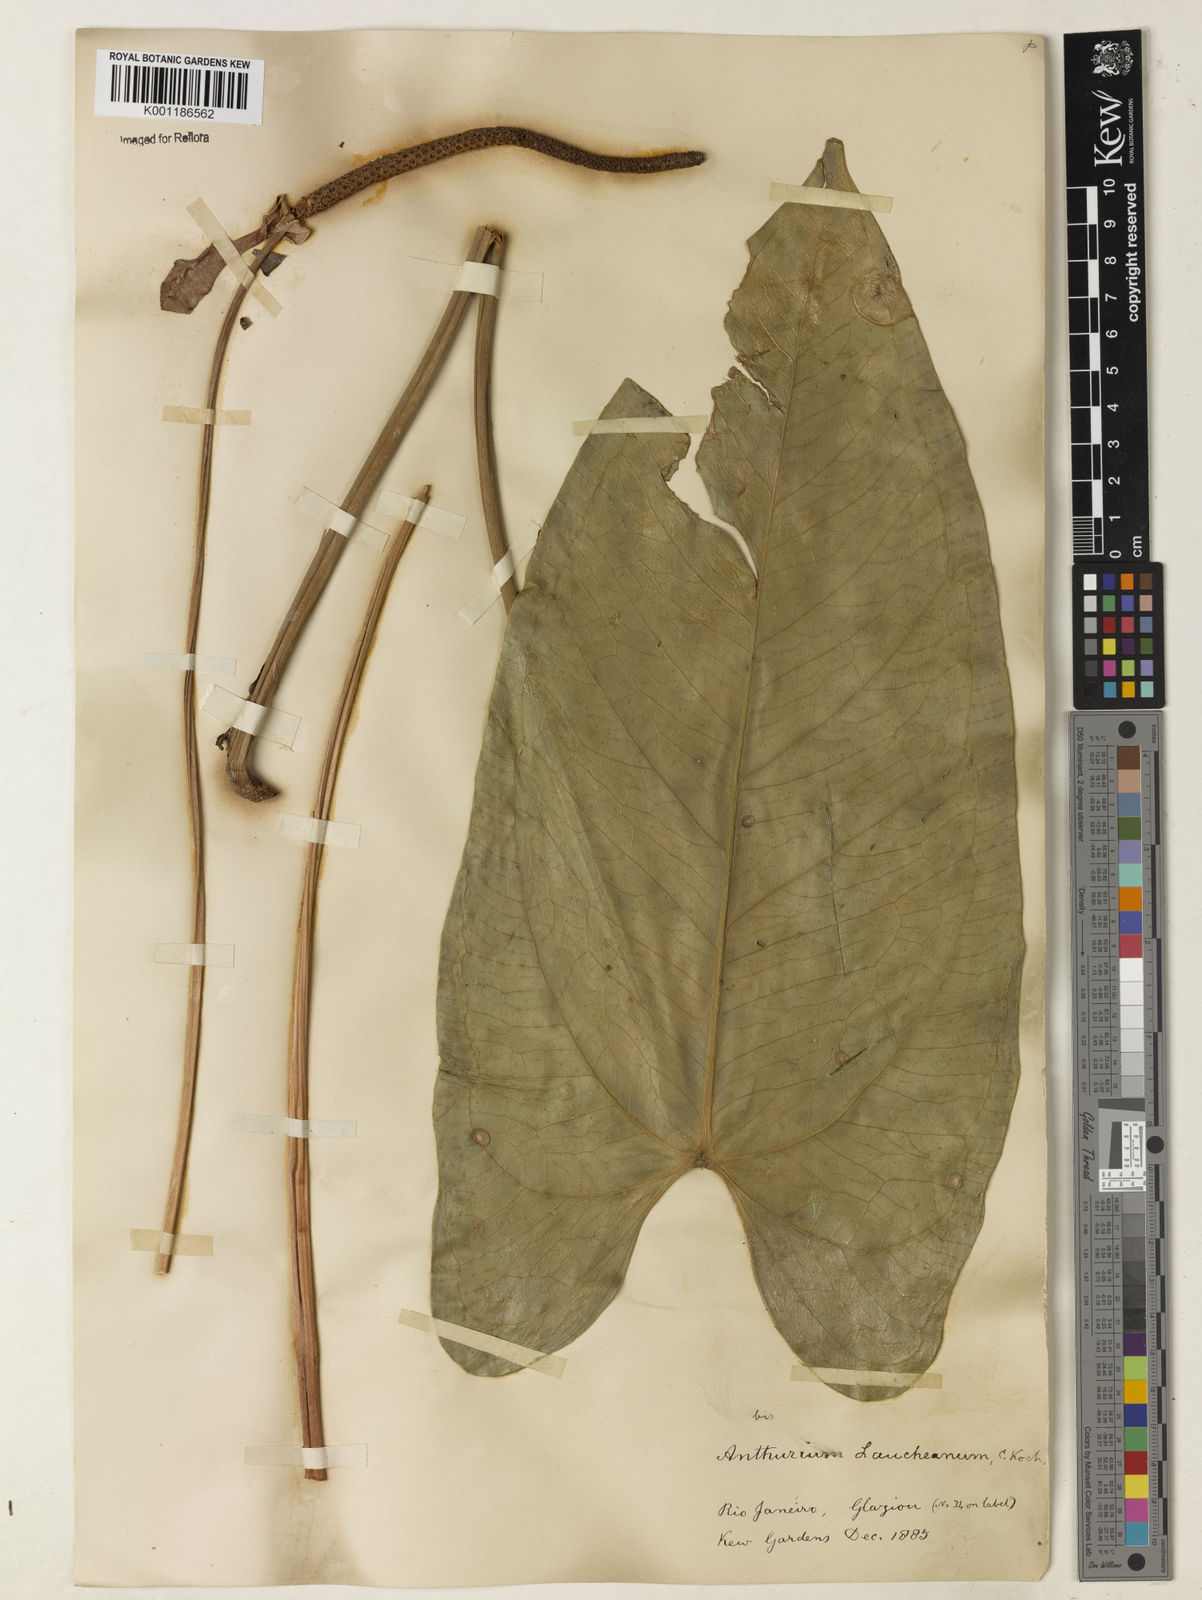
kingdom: Plantae
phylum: Tracheophyta
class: Liliopsida
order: Alismatales
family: Araceae
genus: Anthurium
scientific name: Anthurium augustinum
